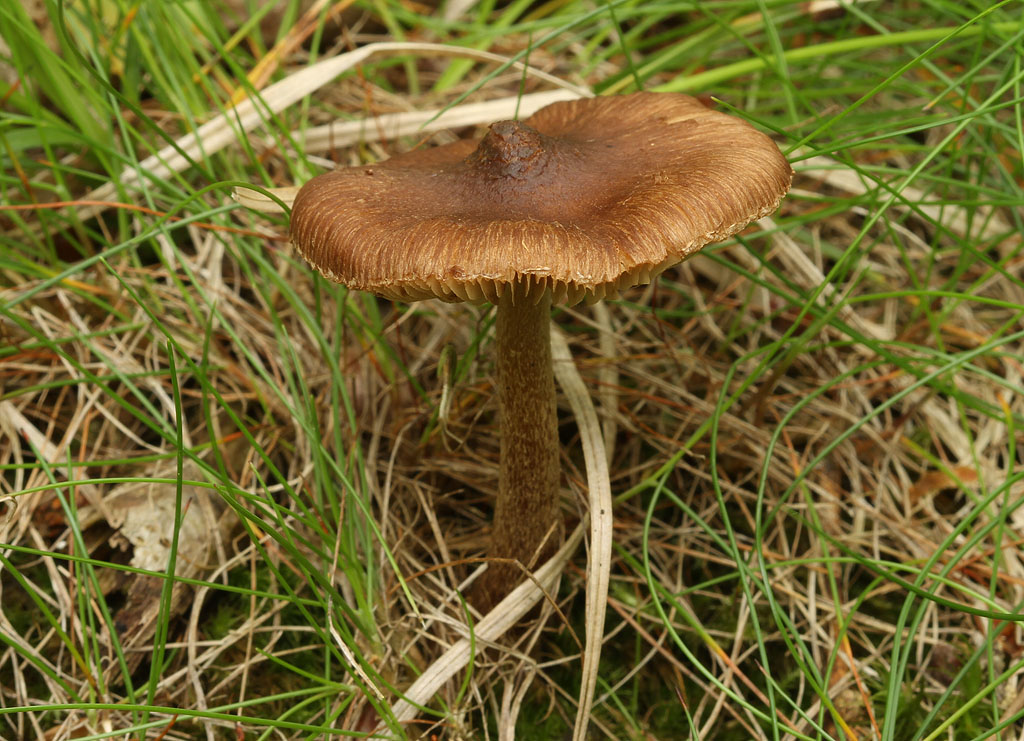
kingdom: Fungi
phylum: Basidiomycota
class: Agaricomycetes
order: Agaricales
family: Inocybaceae
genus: Inocybe
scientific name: Inocybe napipes
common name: roeknoldet trævlhat
